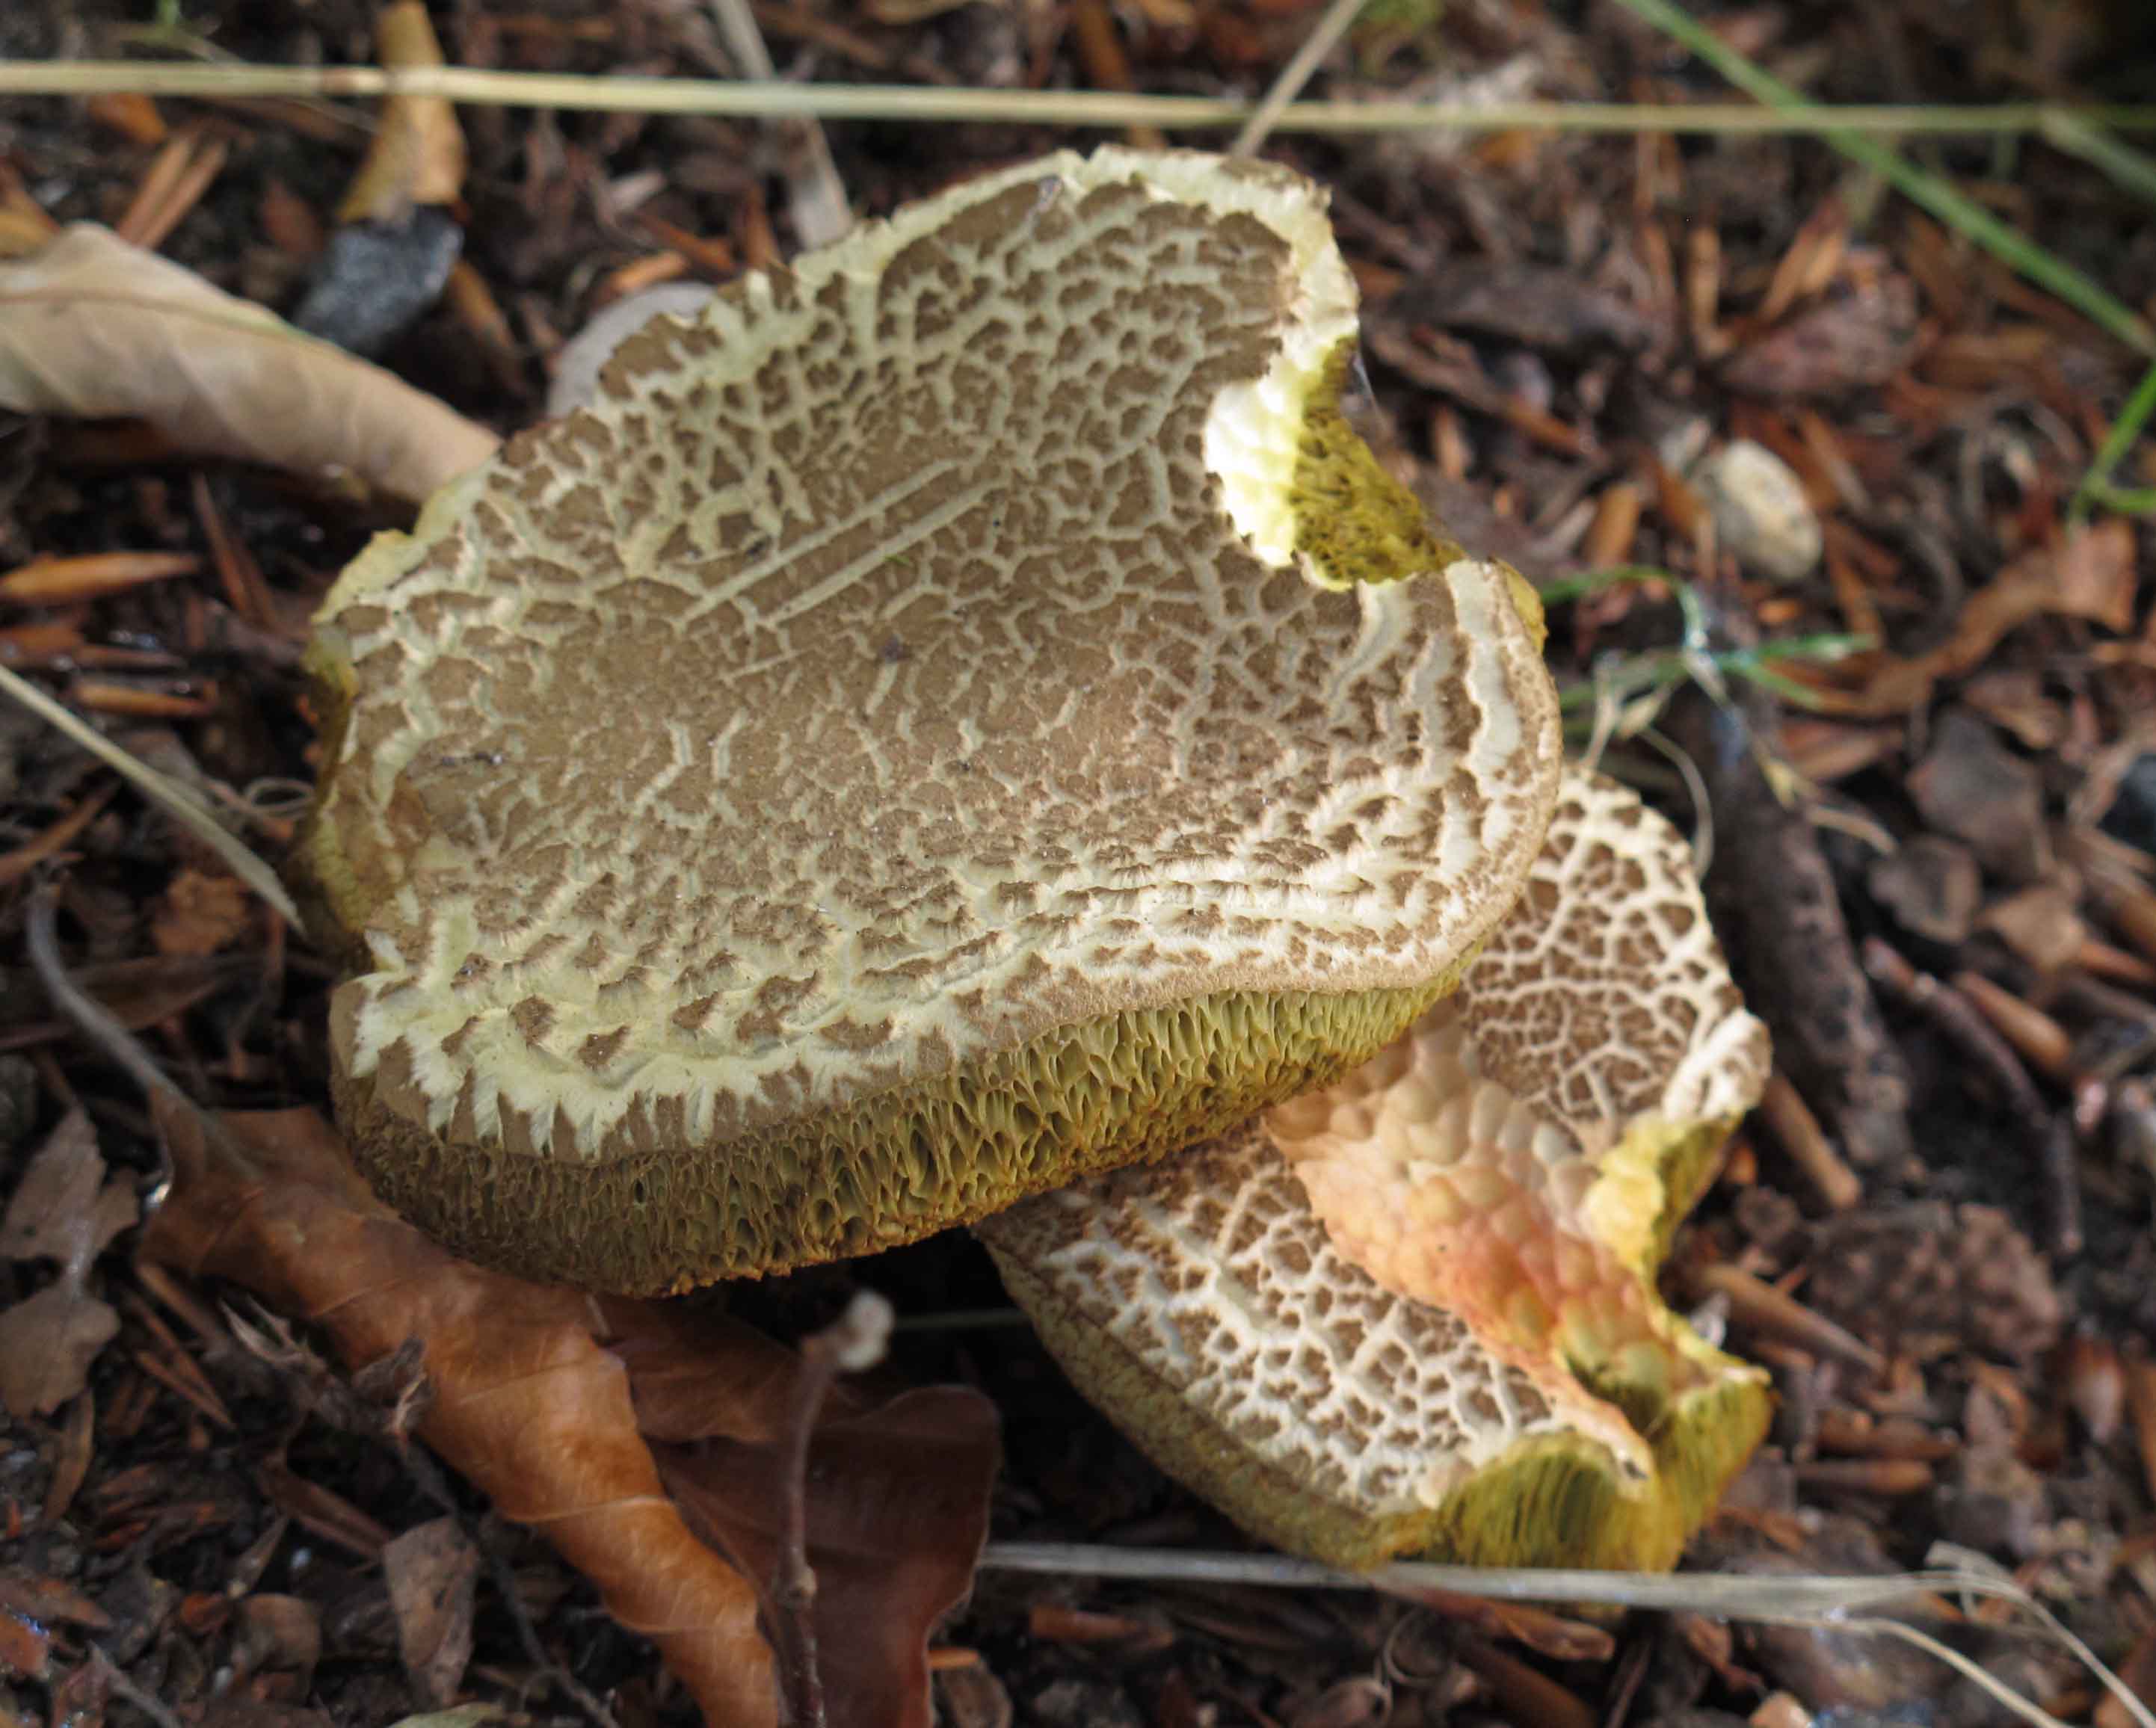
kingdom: Fungi
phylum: Basidiomycota
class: Agaricomycetes
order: Boletales
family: Boletaceae
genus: Xerocomellus
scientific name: Xerocomellus porosporus
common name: hvidsprukken rørhat
